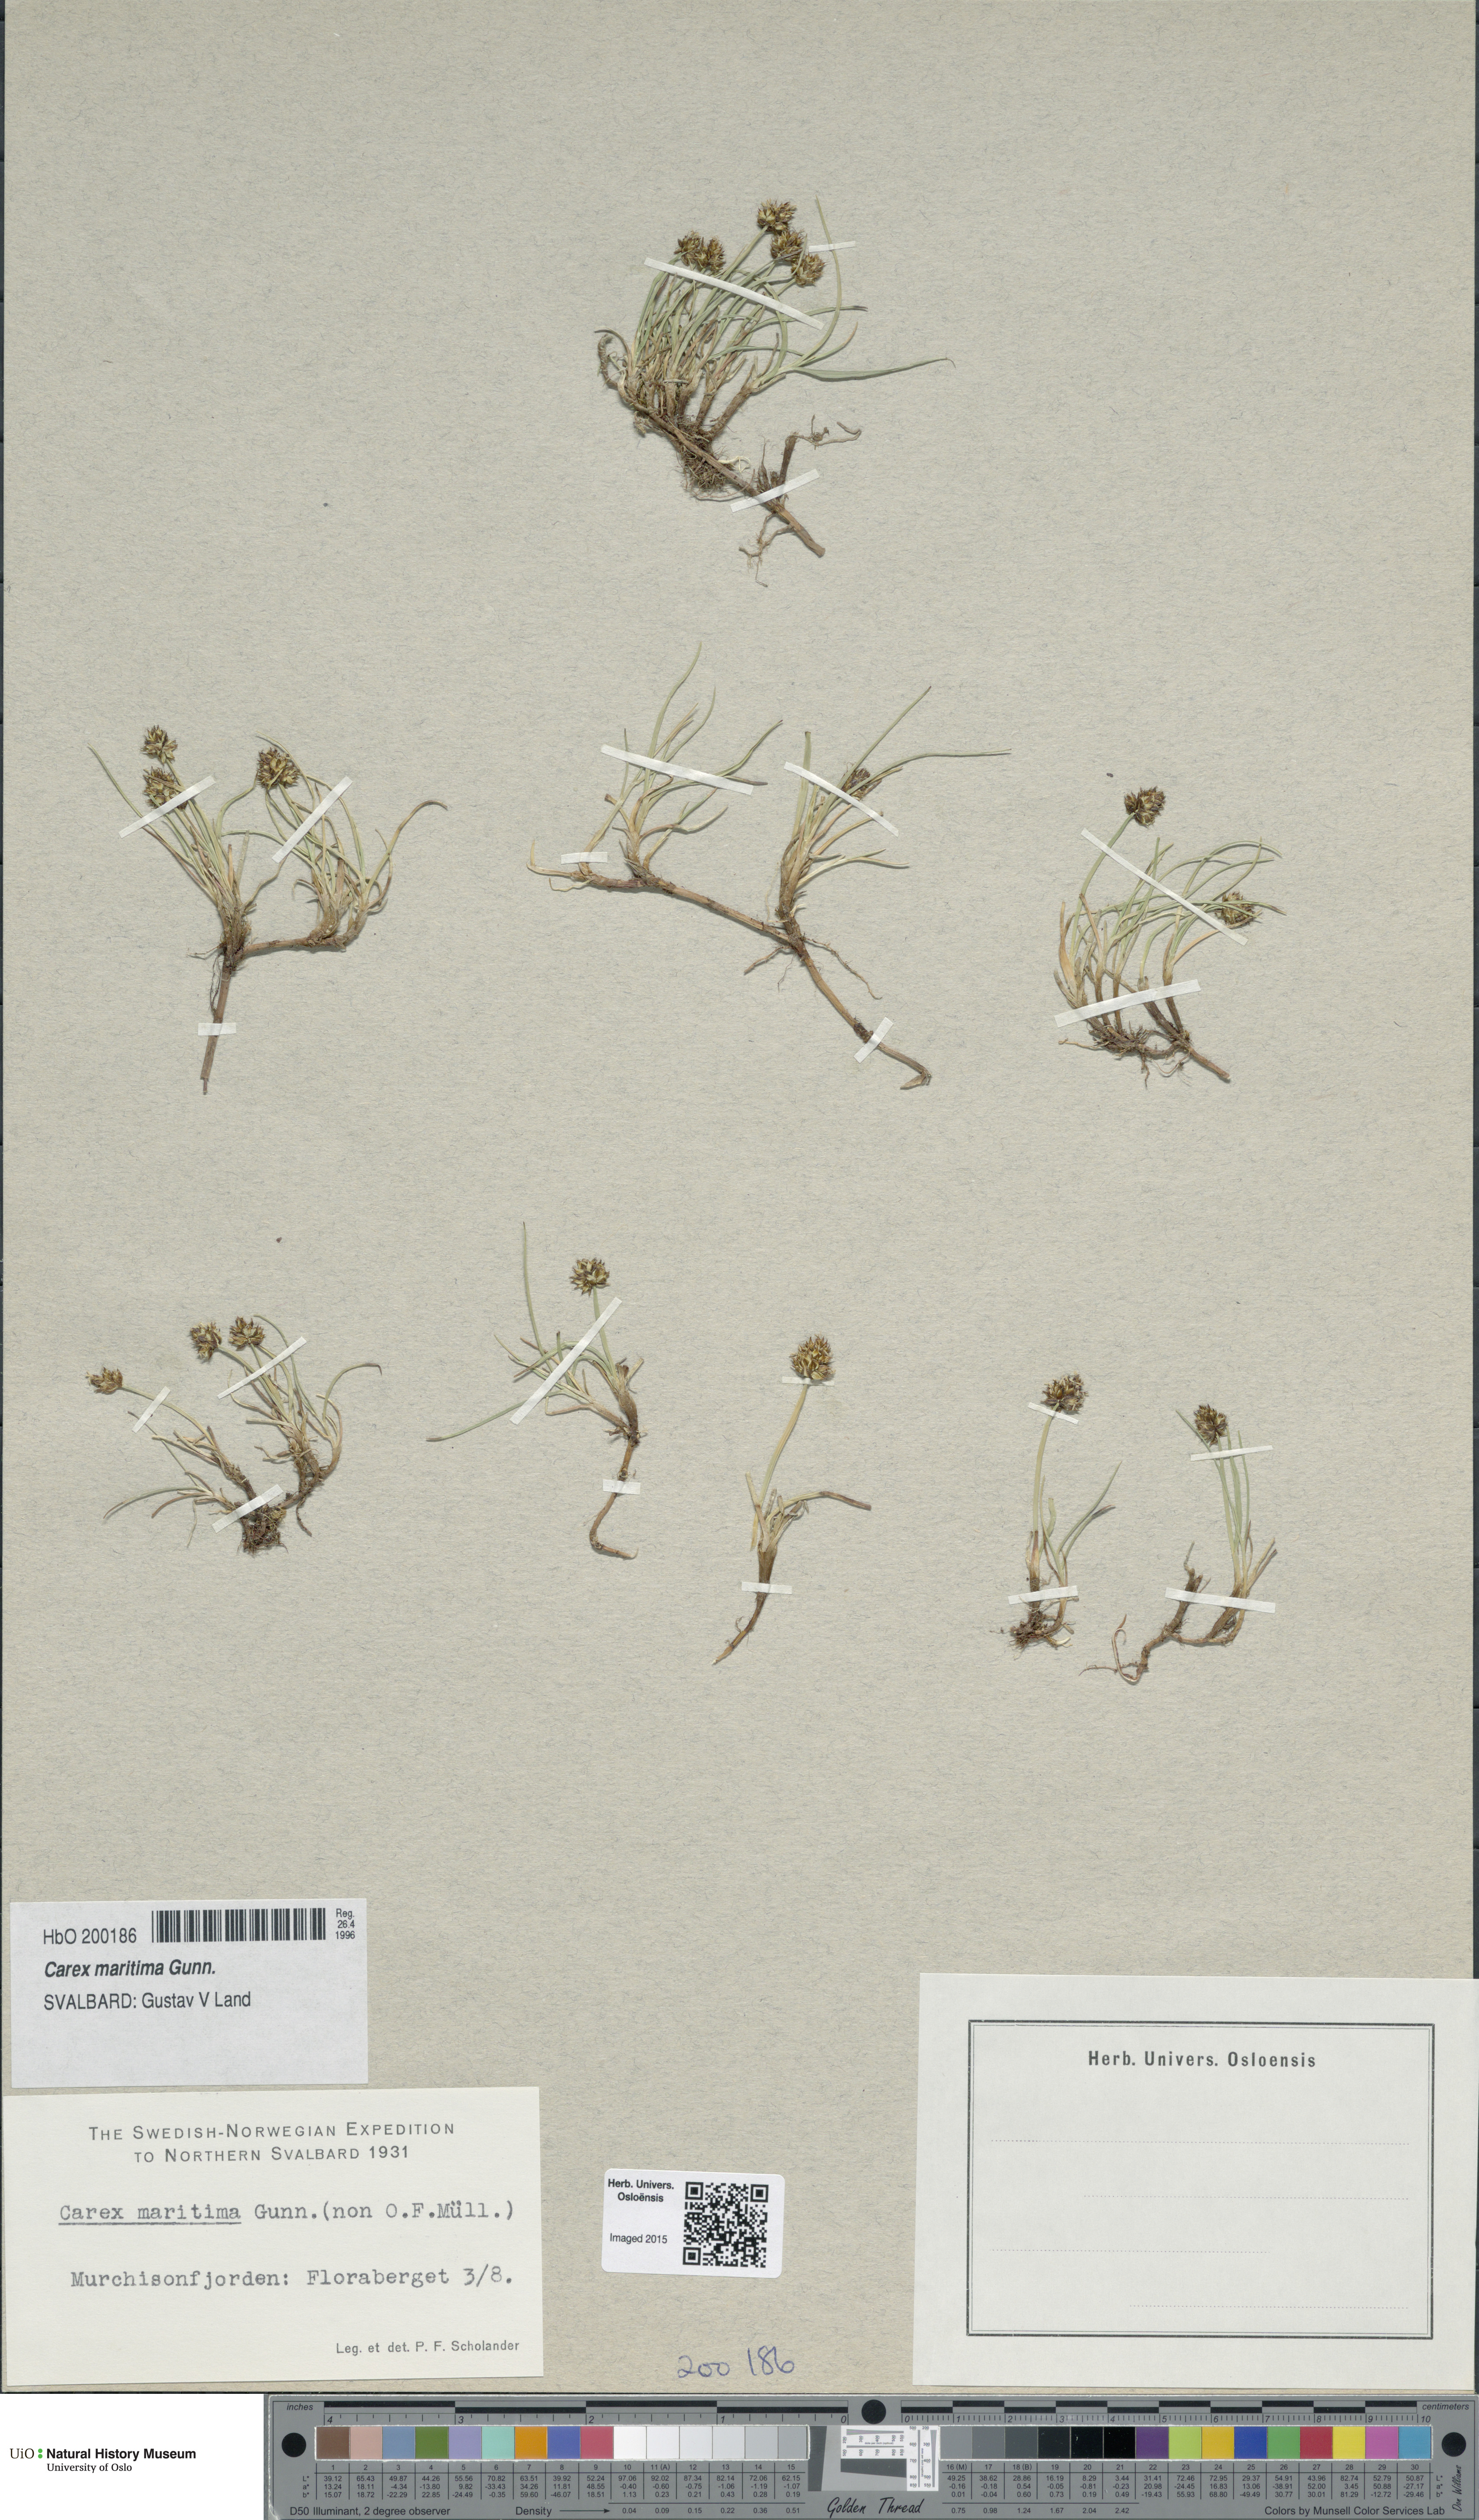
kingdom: Plantae
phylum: Tracheophyta
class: Liliopsida
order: Poales
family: Cyperaceae
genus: Carex
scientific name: Carex maritima
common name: Curved sedge
